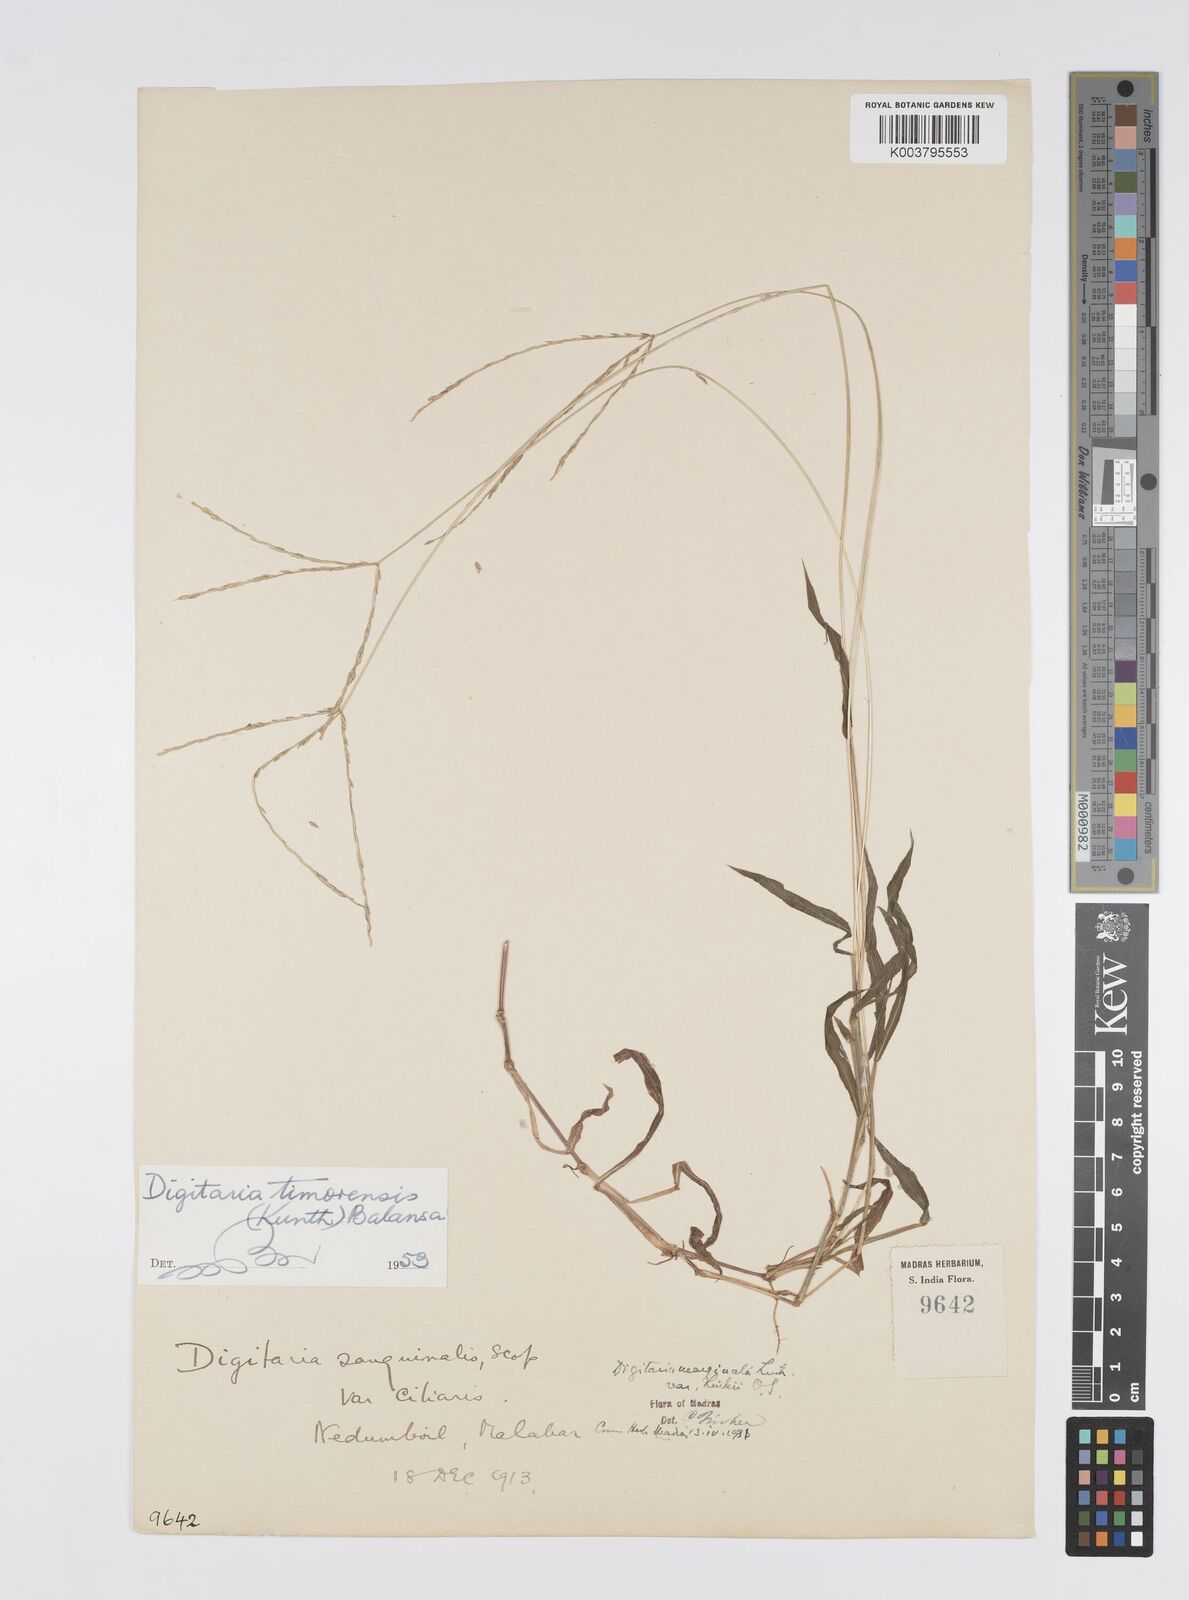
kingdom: Plantae
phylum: Tracheophyta
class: Liliopsida
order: Poales
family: Poaceae
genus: Digitaria
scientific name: Digitaria radicosa
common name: Trailing crabgrass
